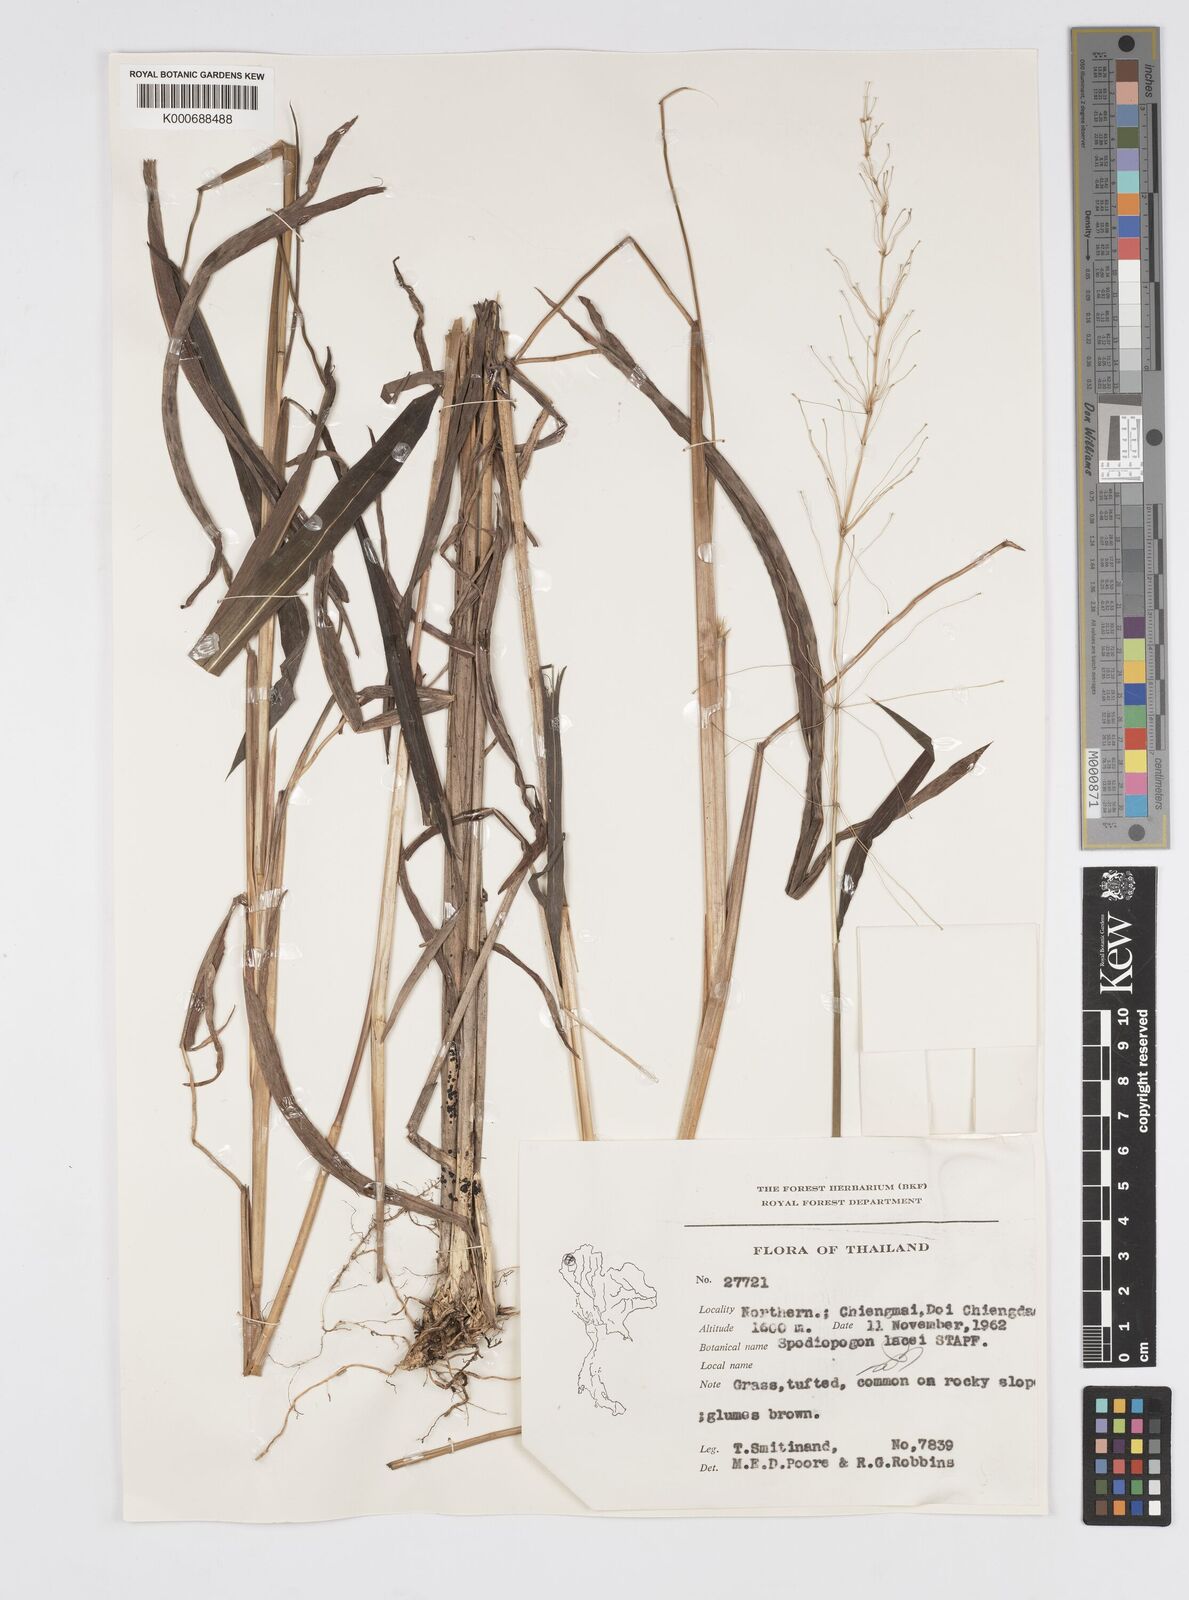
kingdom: Plantae
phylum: Tracheophyta
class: Liliopsida
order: Poales
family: Poaceae
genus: Spodiopogon
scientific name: Spodiopogon lacei
